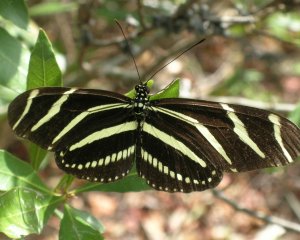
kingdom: Animalia
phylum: Arthropoda
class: Insecta
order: Lepidoptera
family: Nymphalidae
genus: Heliconius
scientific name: Heliconius charithonia
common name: Zebra Longwing
